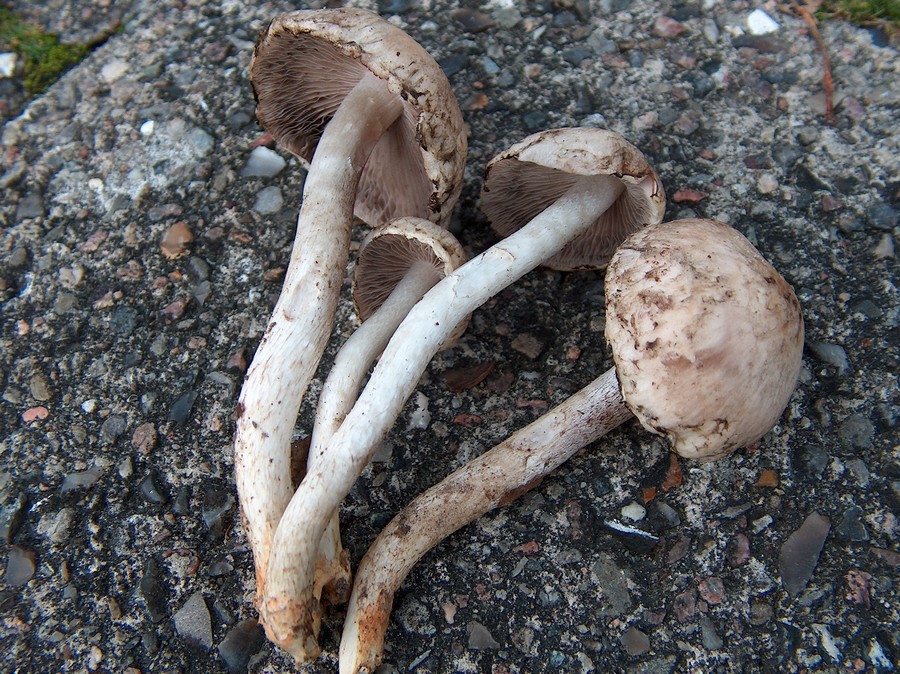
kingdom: Fungi
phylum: Basidiomycota
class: Agaricomycetes
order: Agaricales
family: Psathyrellaceae
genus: Psathyrella
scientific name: Psathyrella cotonea
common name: skællet mørkhat
